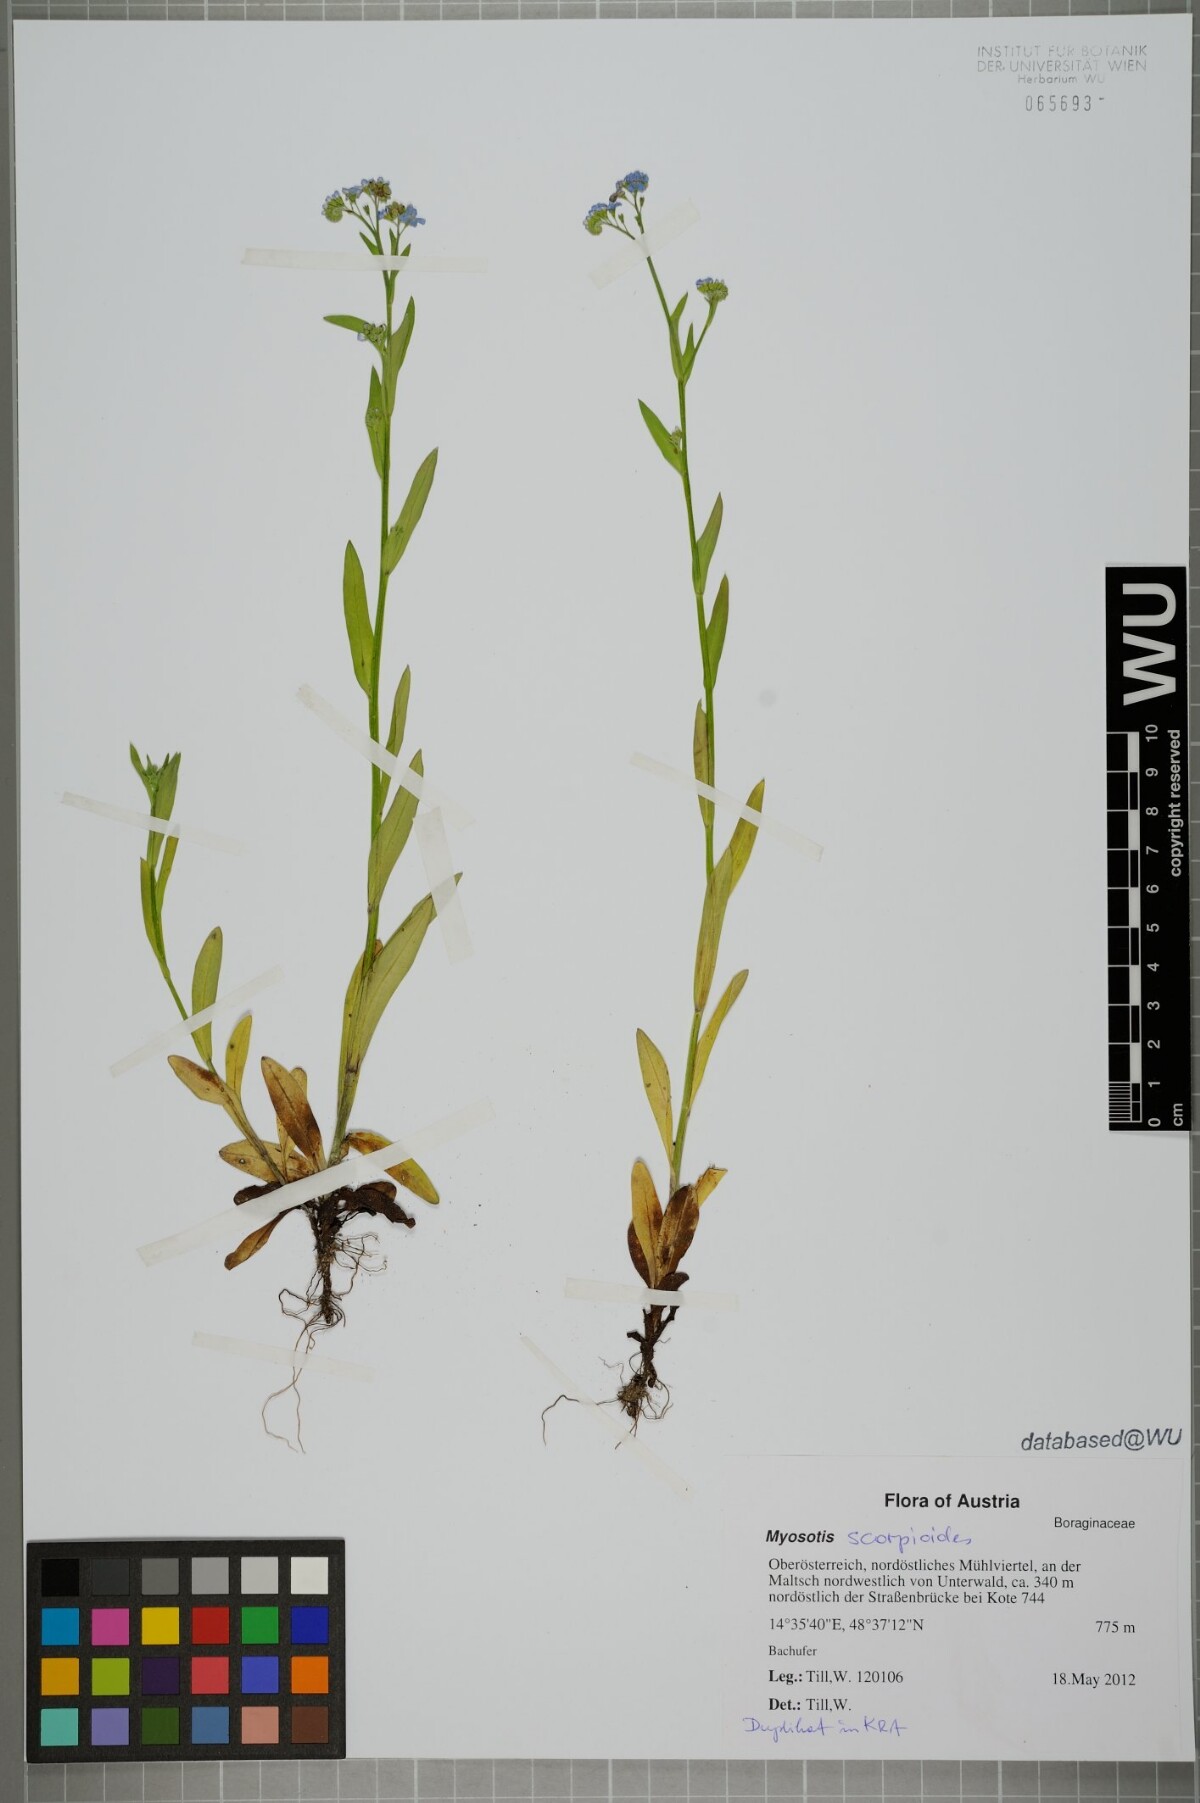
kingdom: Plantae
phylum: Tracheophyta
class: Magnoliopsida
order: Boraginales
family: Boraginaceae
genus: Myosotis
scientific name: Myosotis scorpioides
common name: Water forget-me-not
